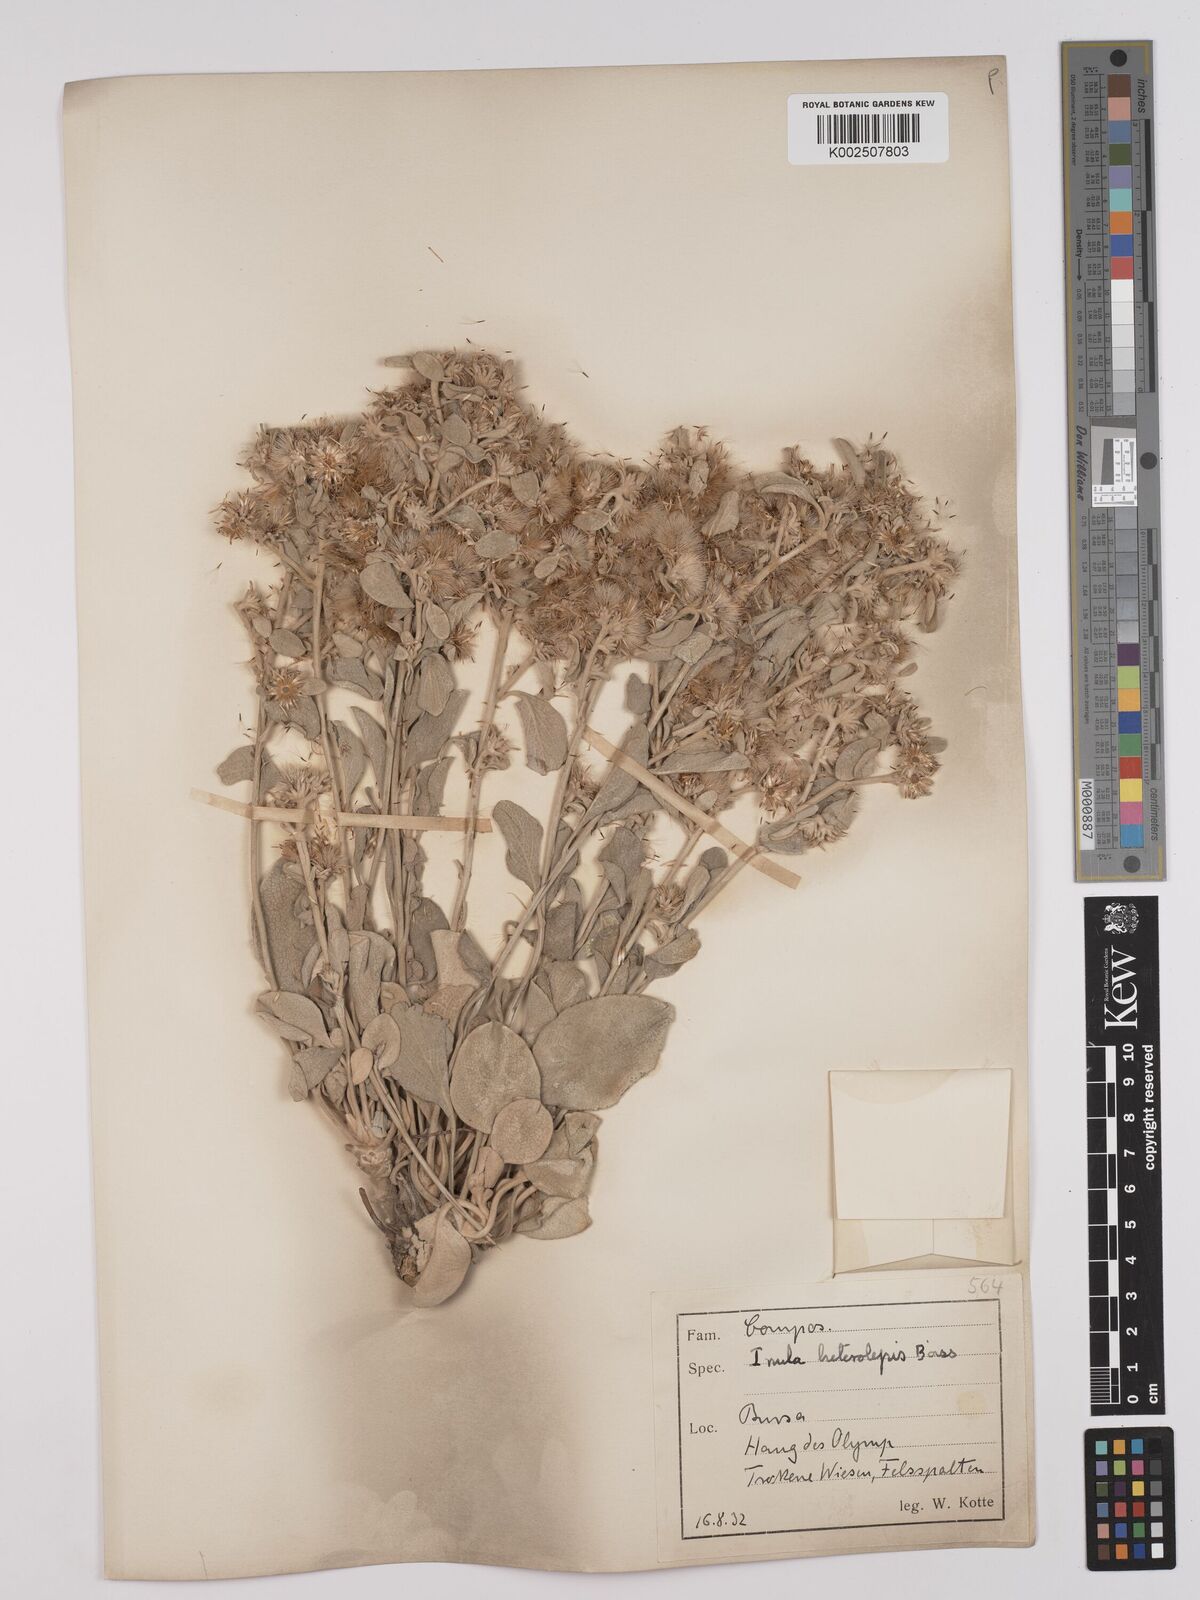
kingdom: Plantae
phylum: Tracheophyta
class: Magnoliopsida
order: Asterales
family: Asteraceae
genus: Pentanema
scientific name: Pentanema verbascifolium
